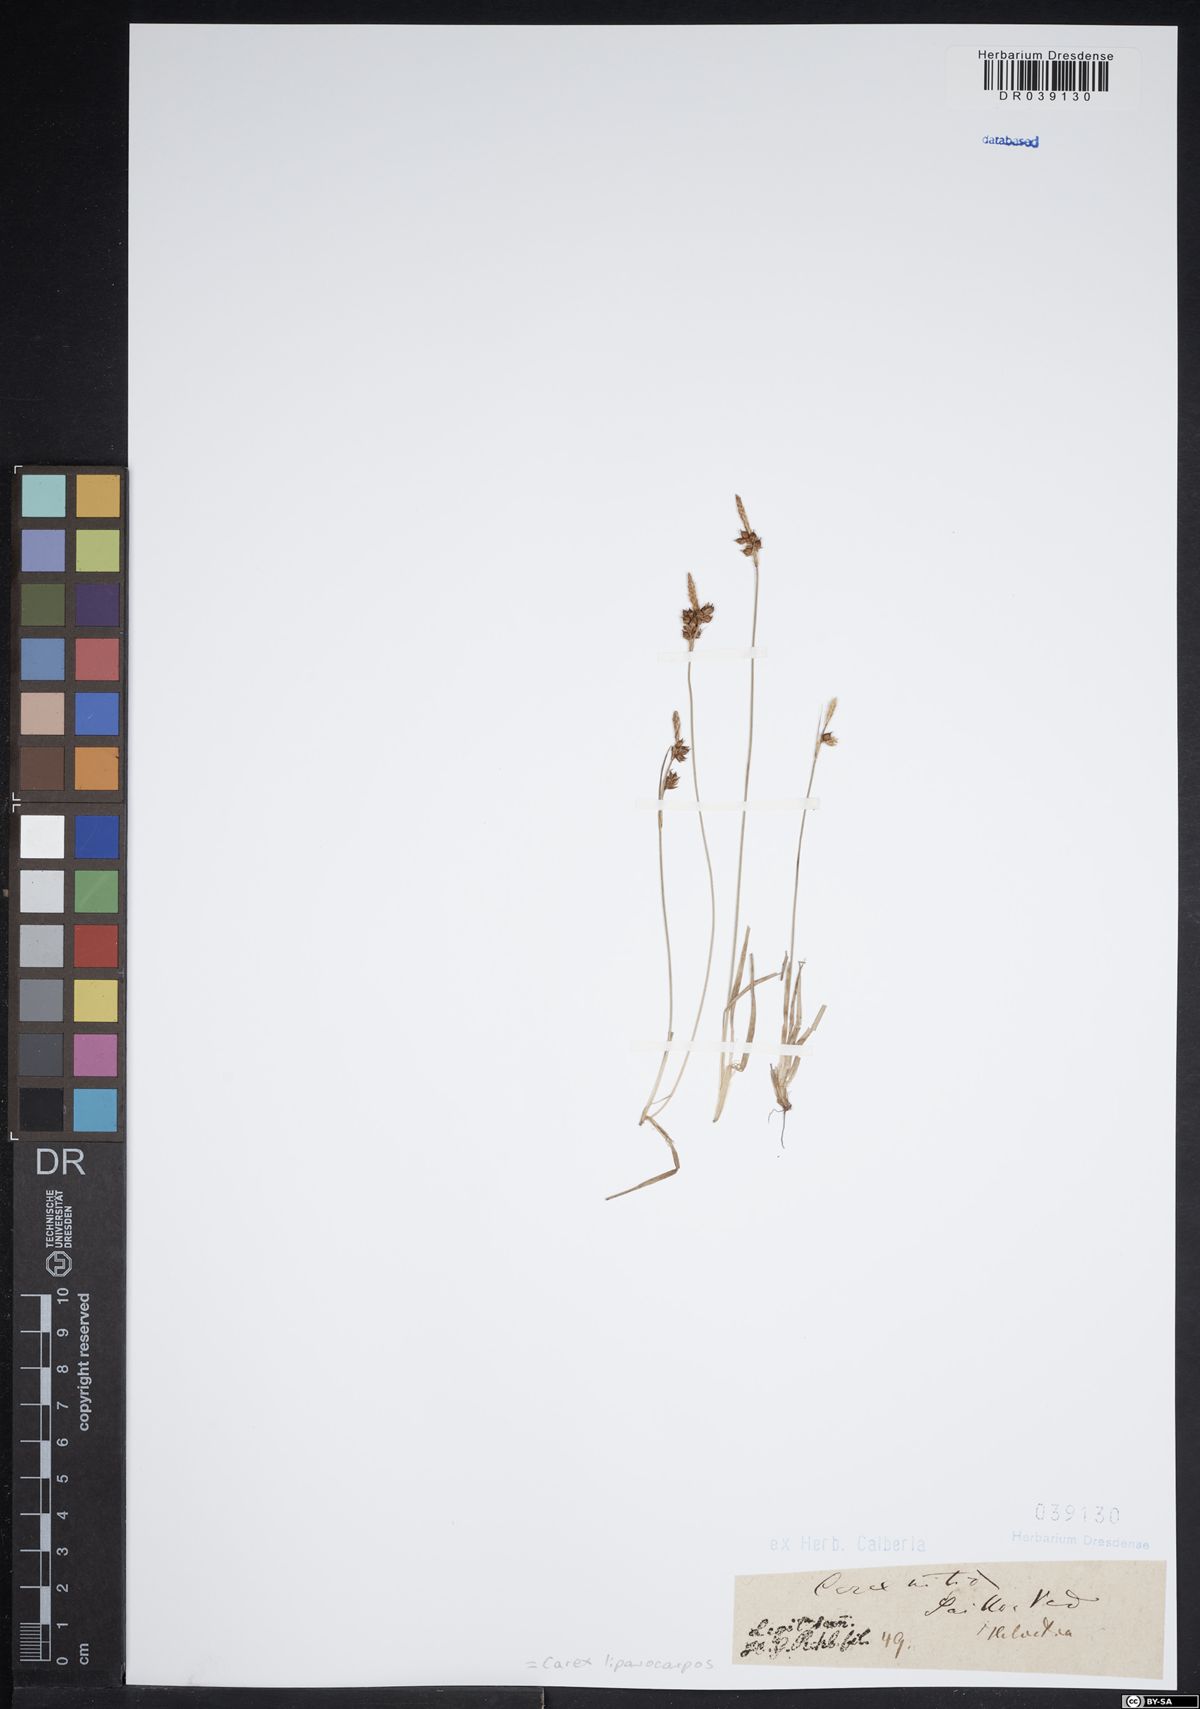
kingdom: Plantae
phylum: Tracheophyta
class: Liliopsida
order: Poales
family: Cyperaceae
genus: Carex
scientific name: Carex liparocarpos
